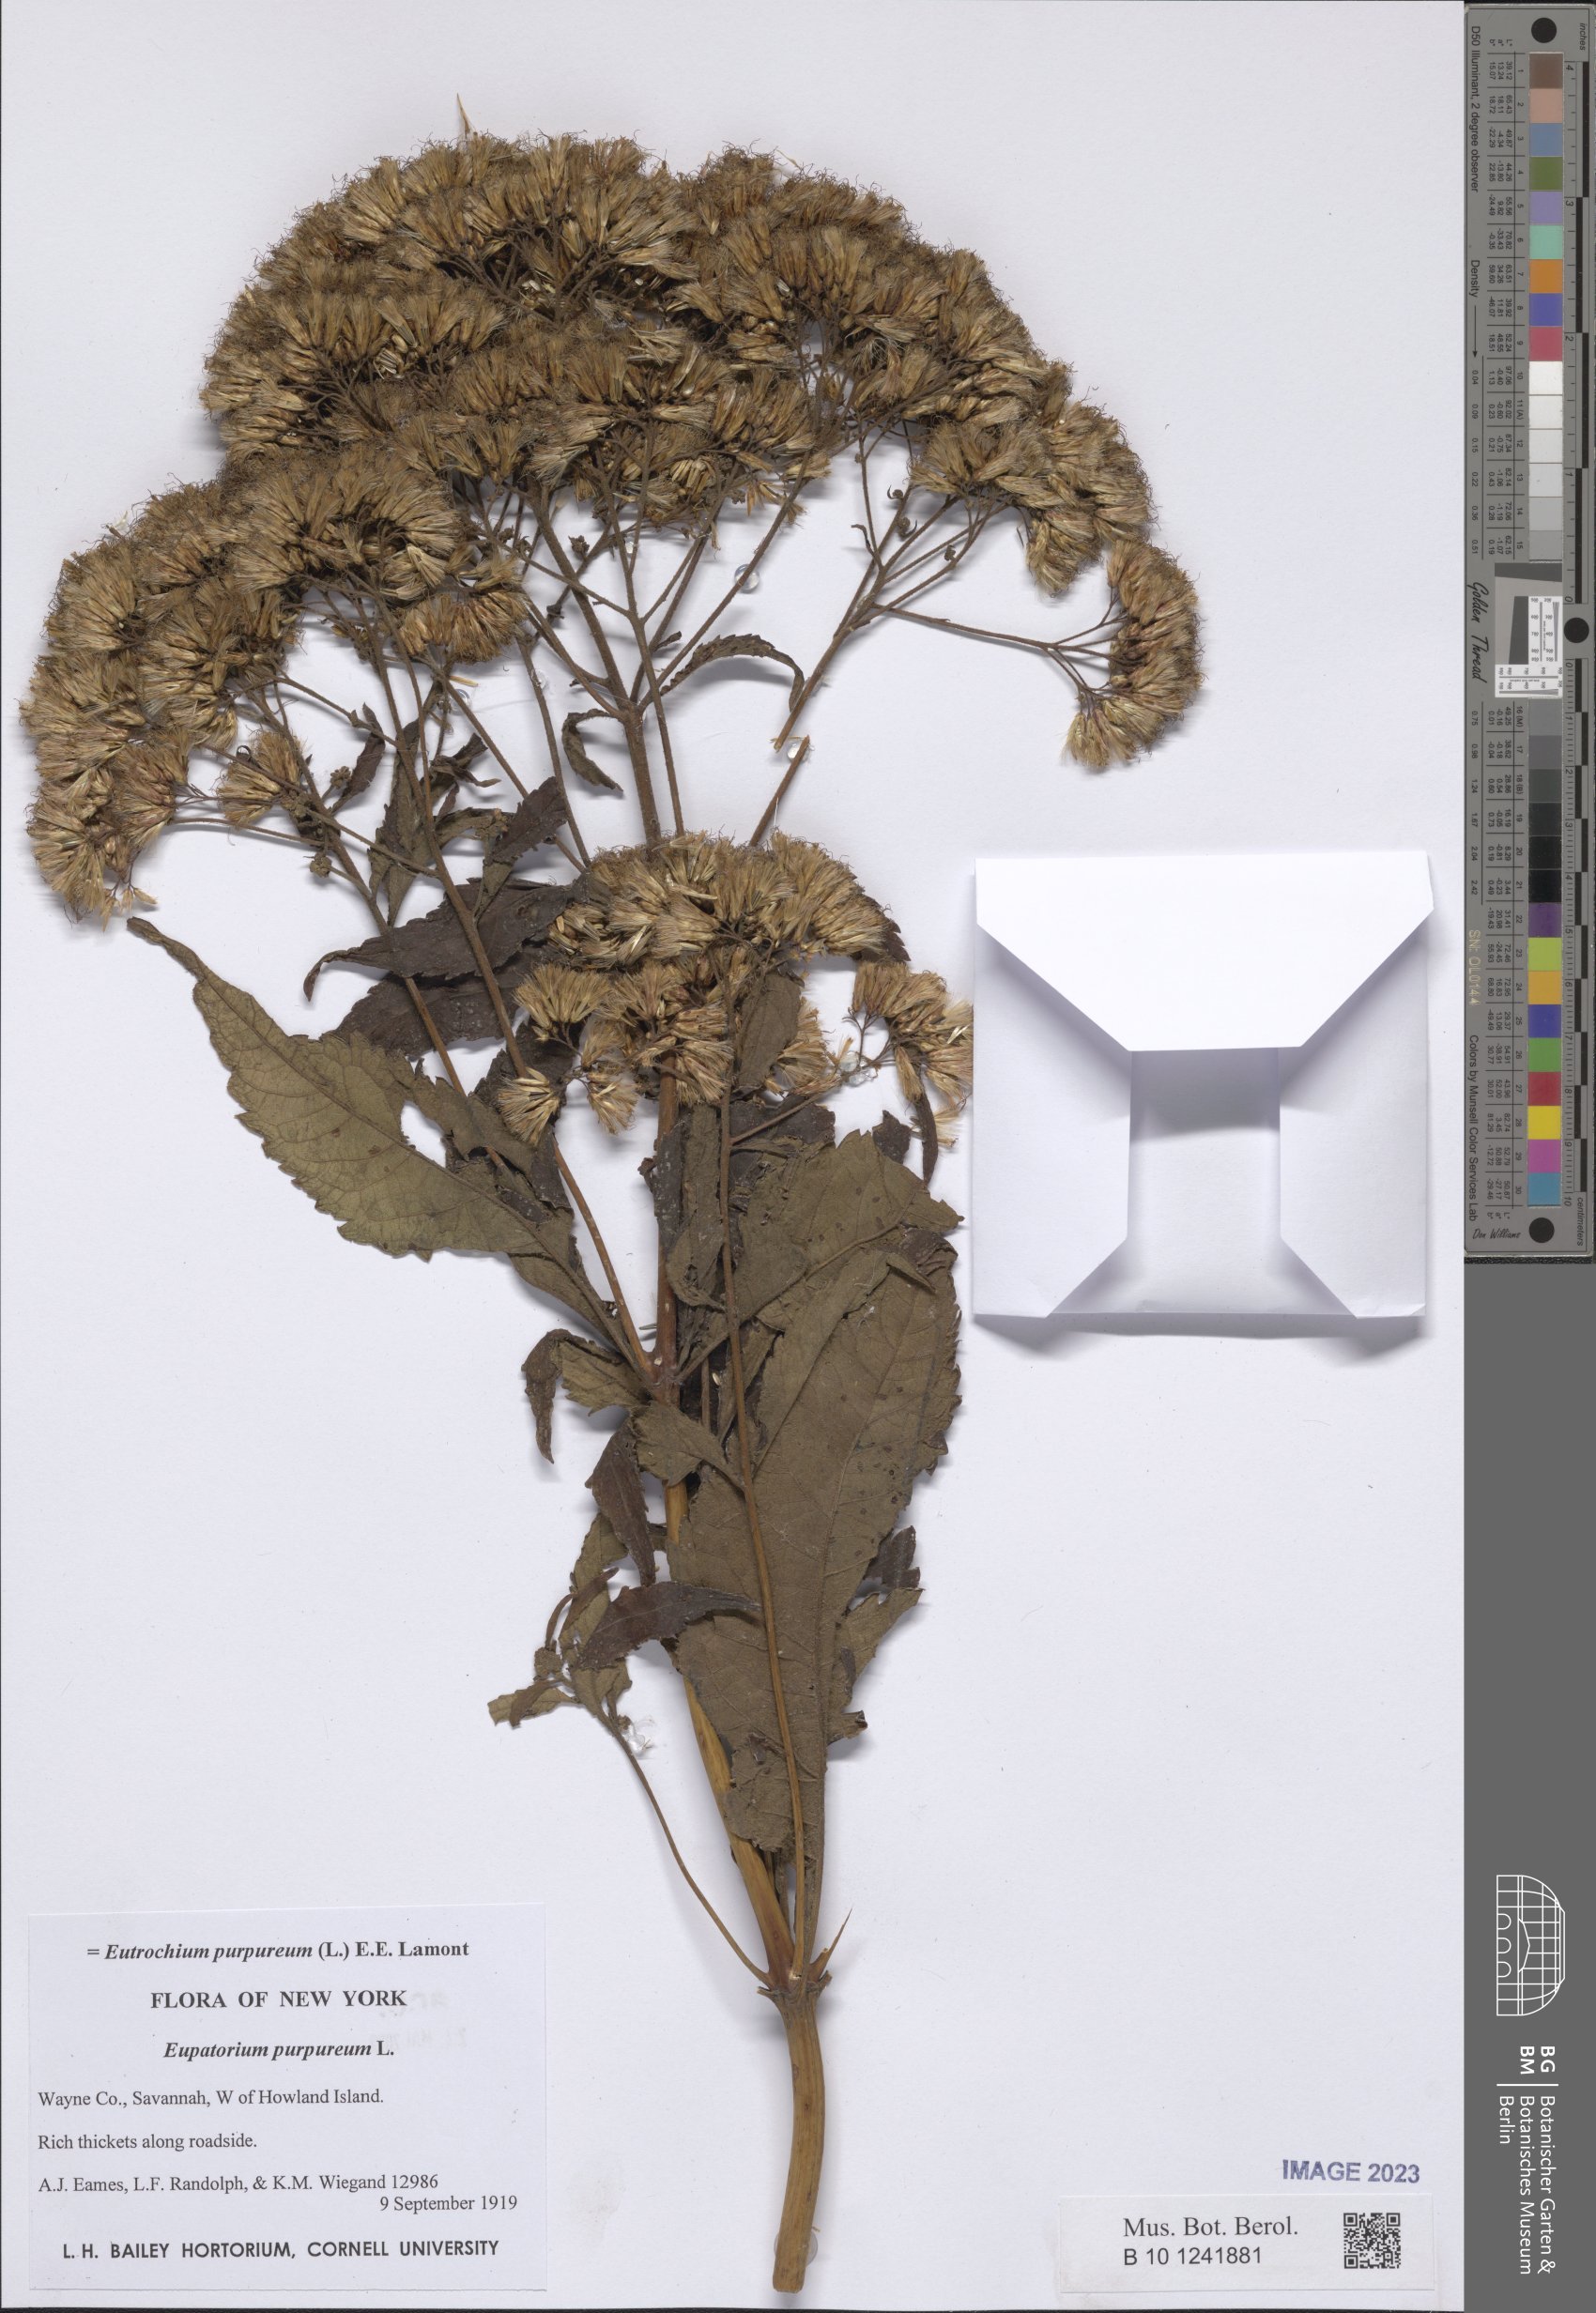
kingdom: Plantae
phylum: Tracheophyta
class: Magnoliopsida
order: Asterales
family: Asteraceae
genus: Eutrochium
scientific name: Eutrochium purpureum
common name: Gravelroot
